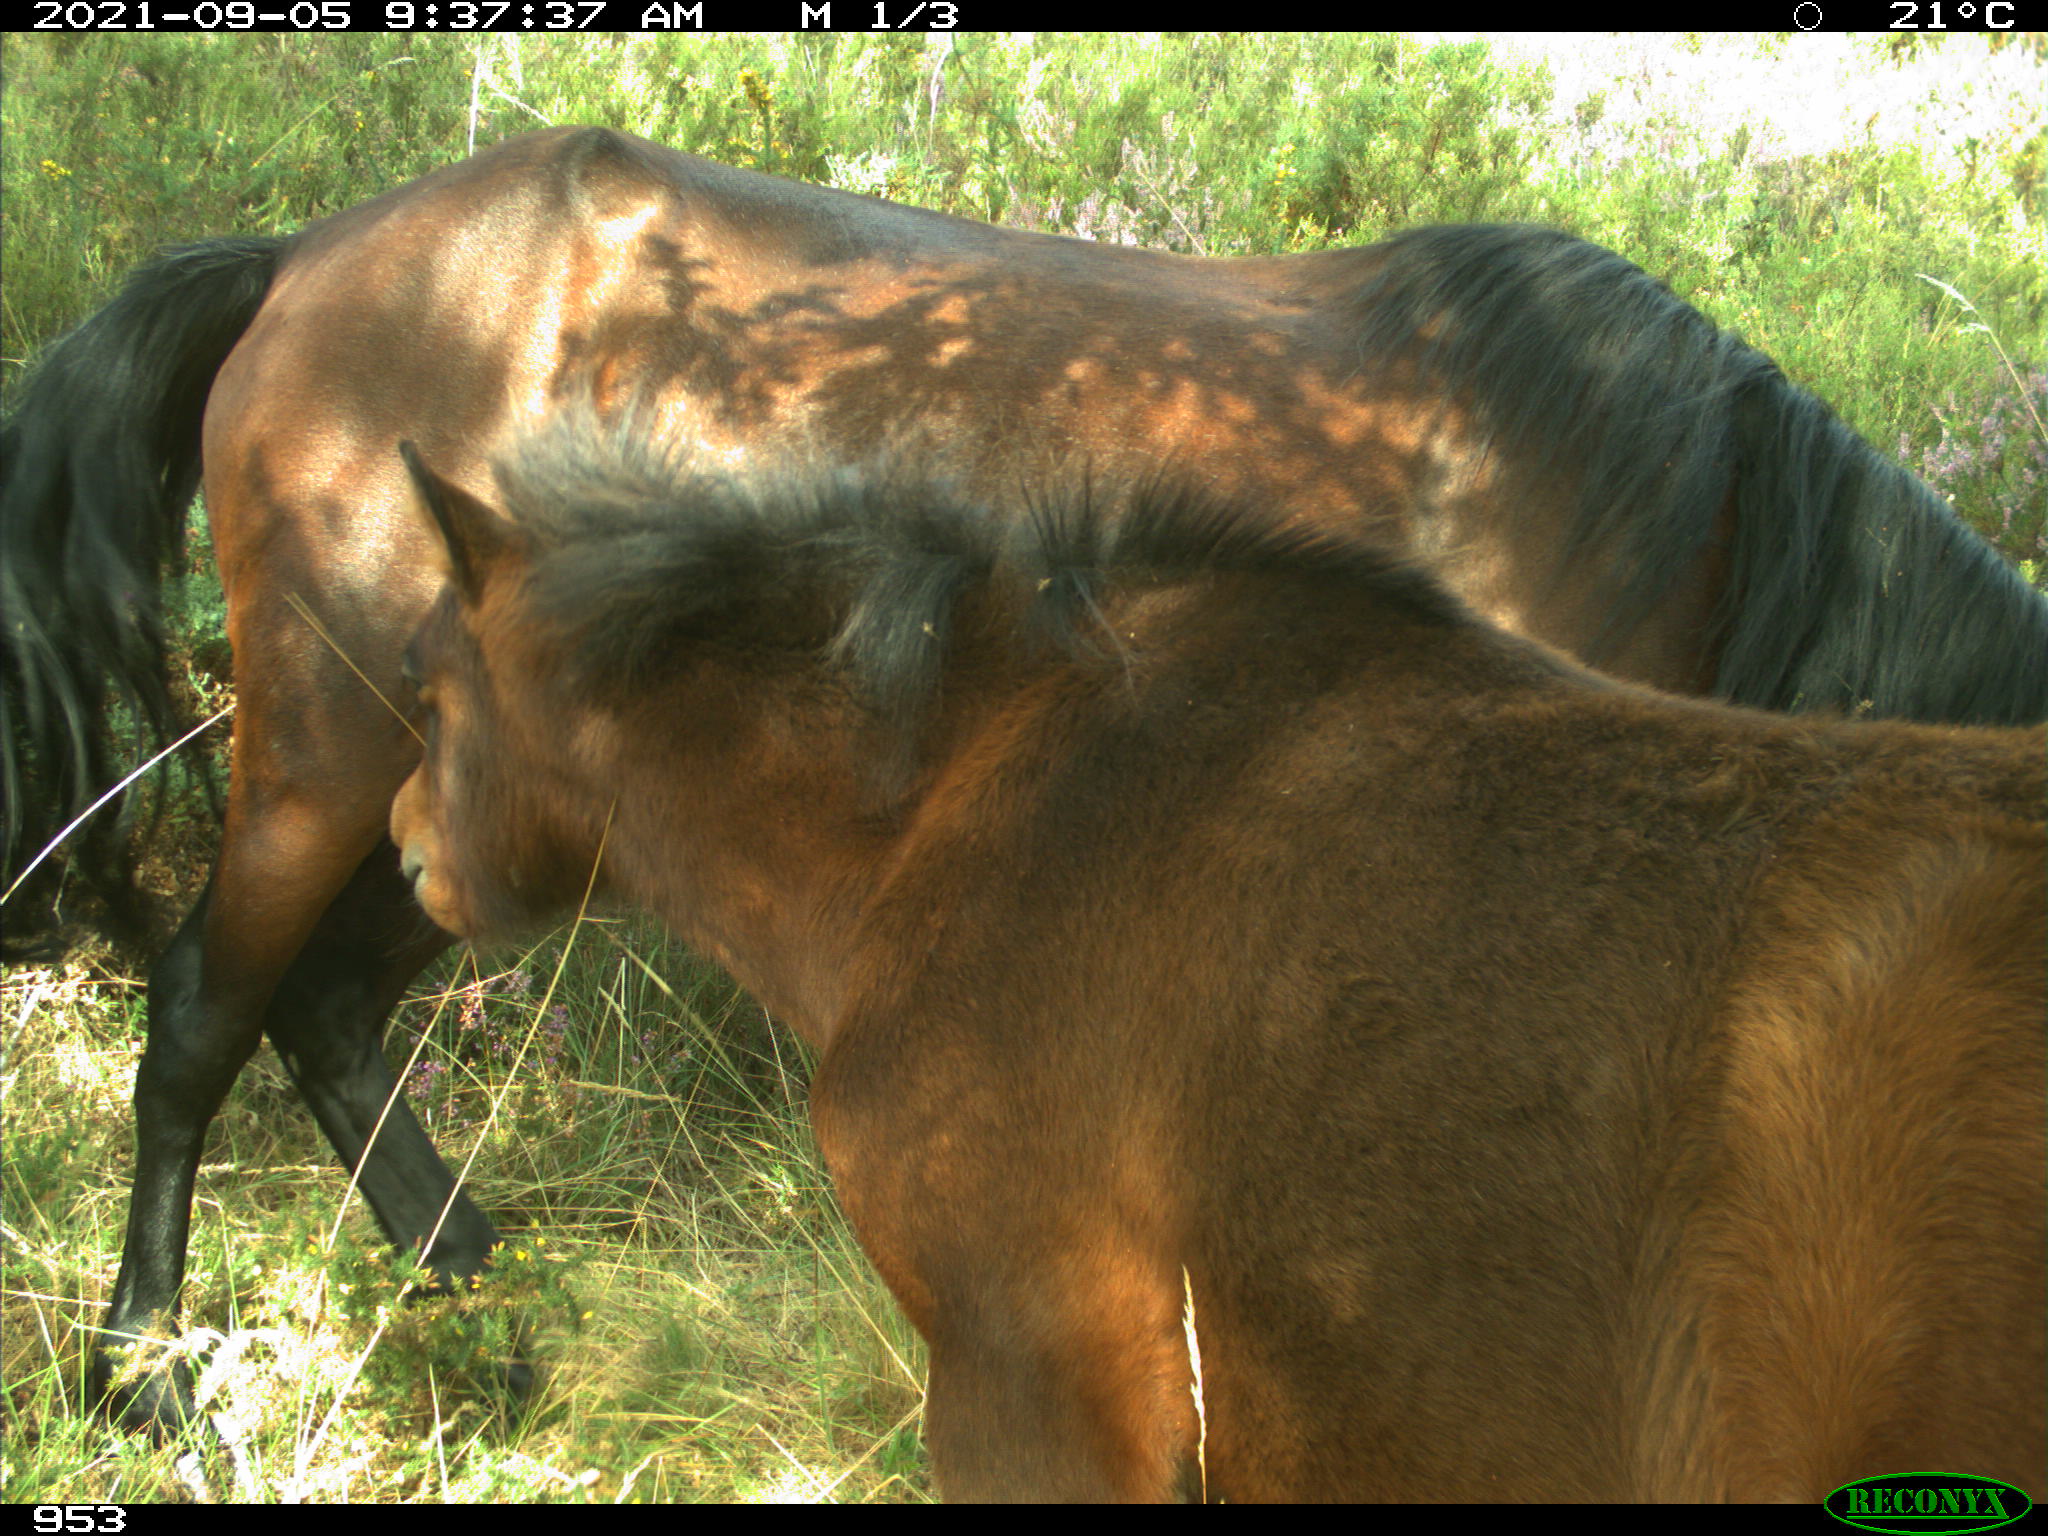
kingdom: Animalia
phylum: Chordata
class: Mammalia
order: Perissodactyla
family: Equidae
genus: Equus
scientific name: Equus caballus
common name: Horse
